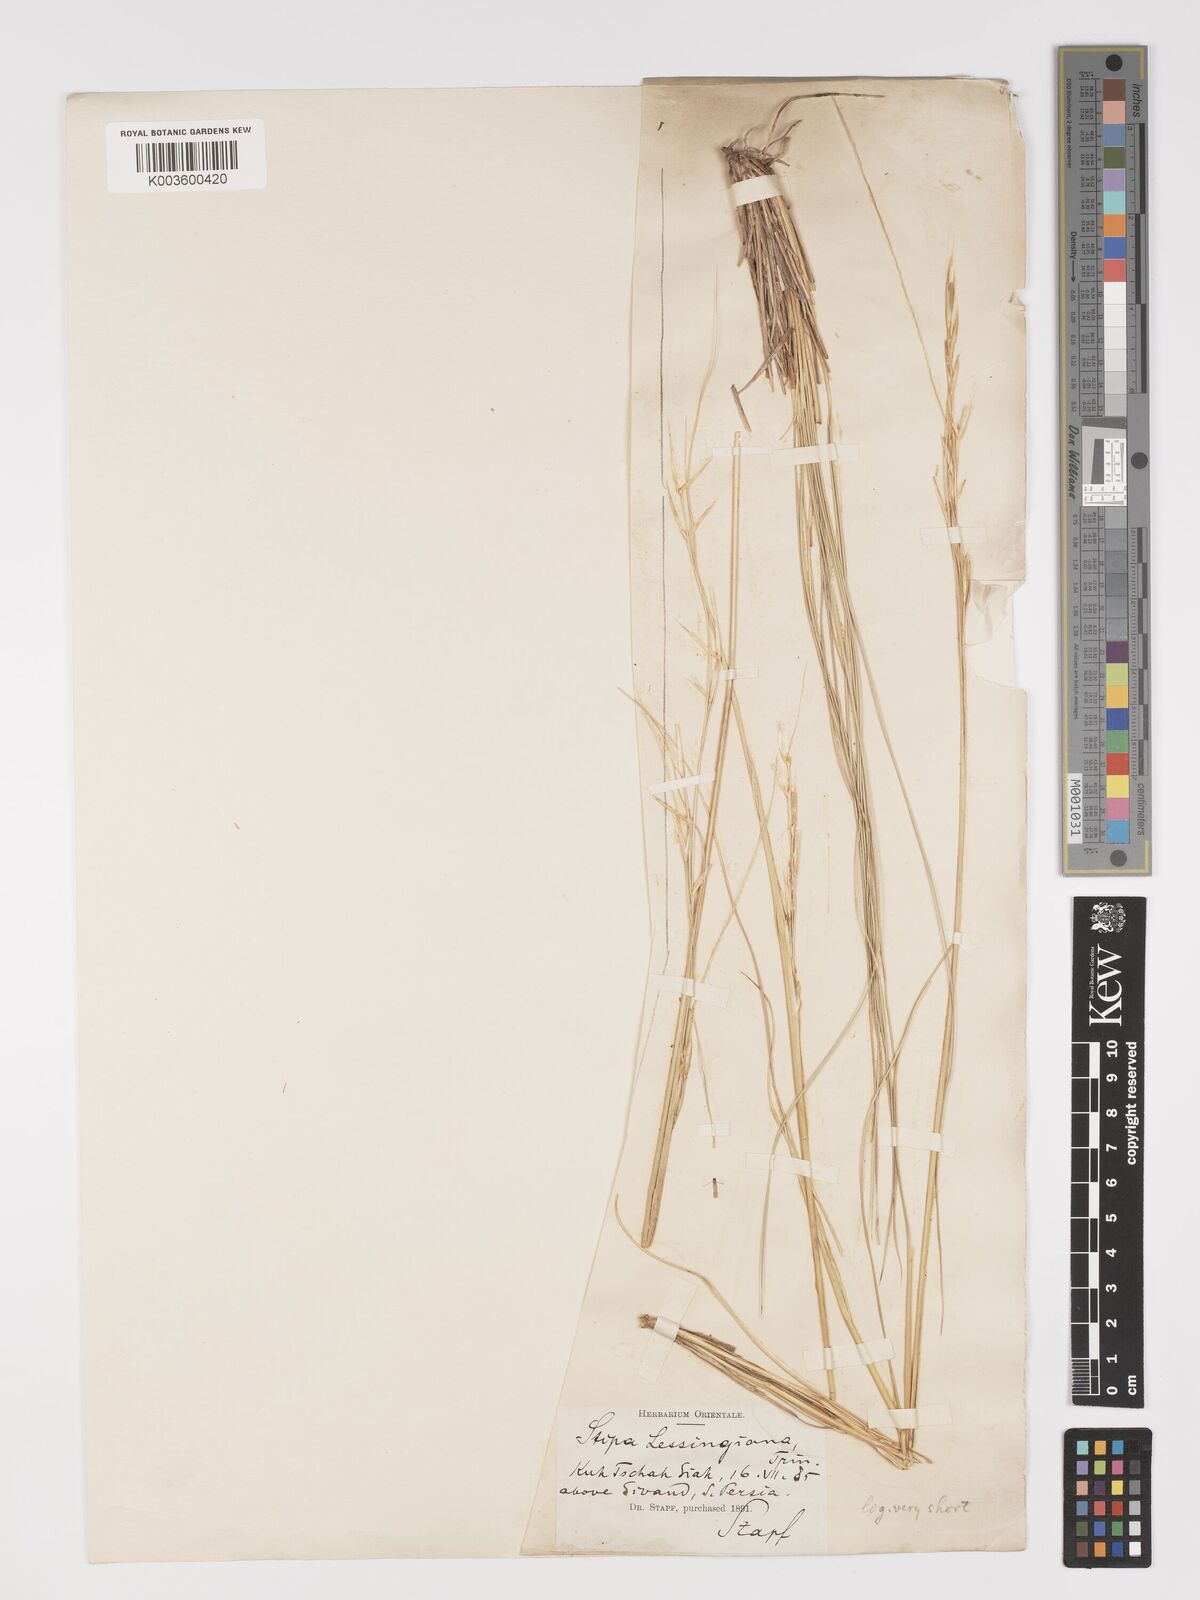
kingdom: Plantae
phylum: Tracheophyta
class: Liliopsida
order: Poales
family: Poaceae
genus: Stipa
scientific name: Stipa lessingiana
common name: Needle grass
